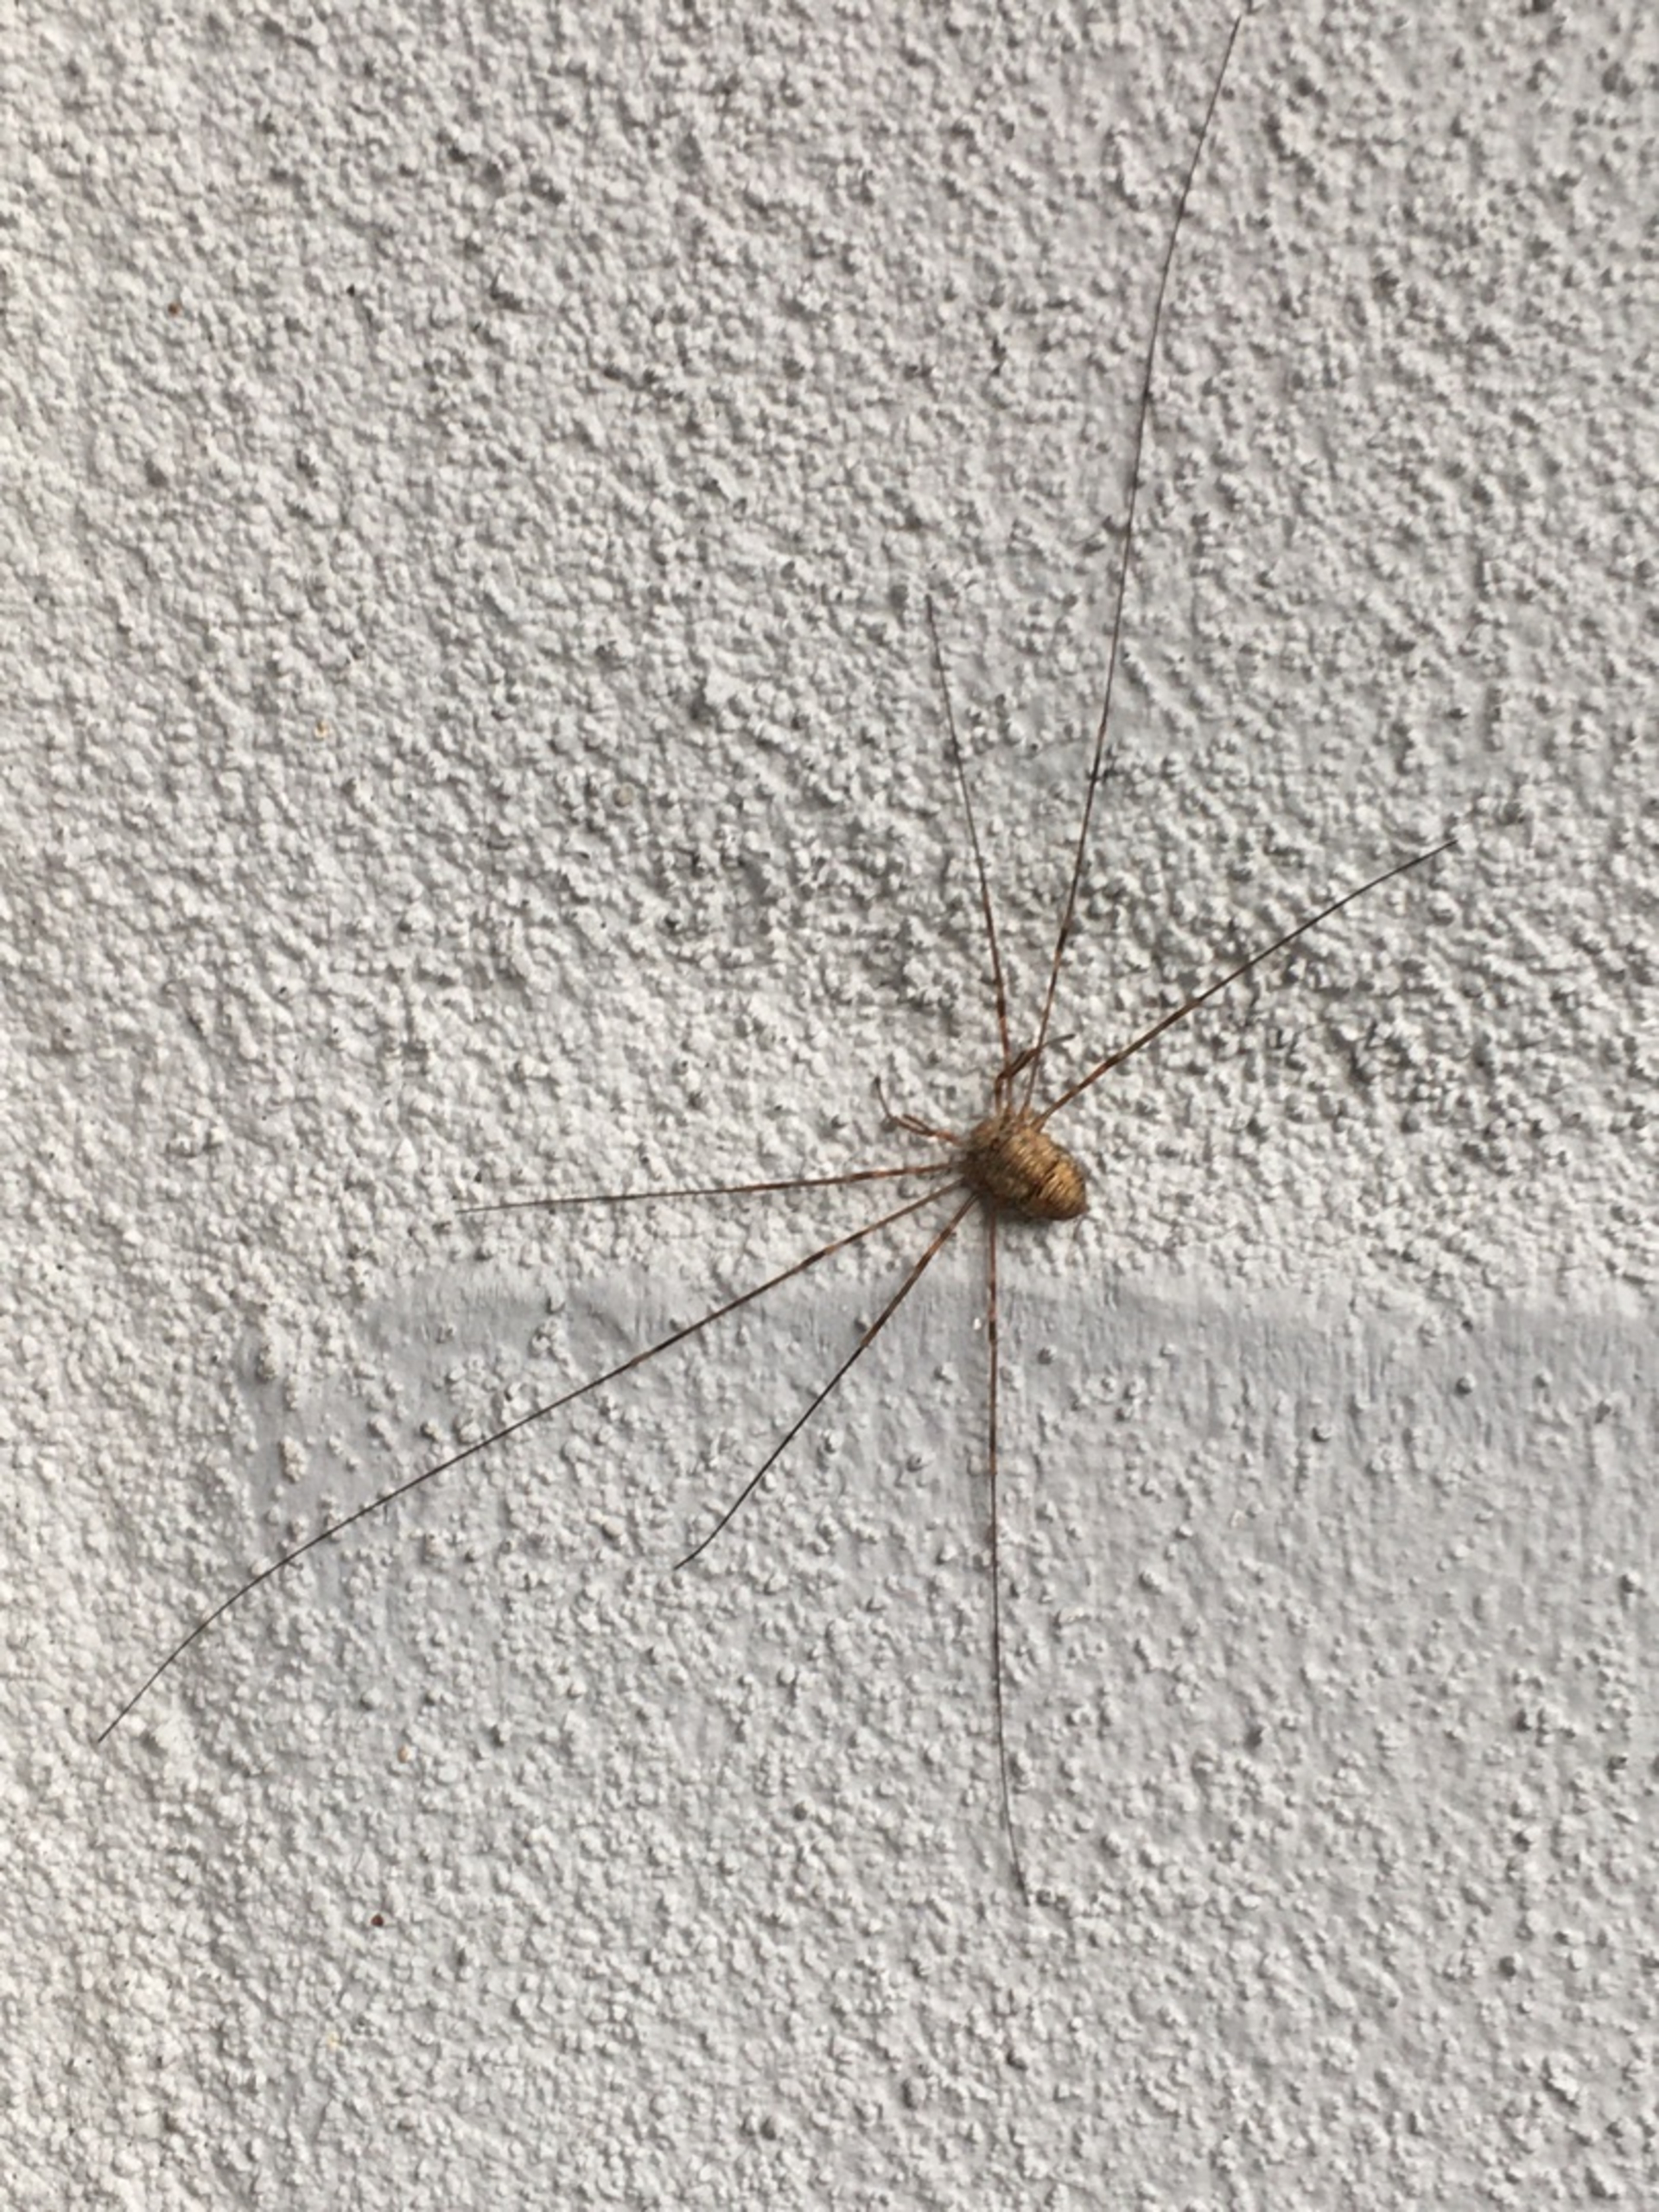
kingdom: Animalia
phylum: Arthropoda
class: Arachnida
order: Opiliones
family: Phalangiidae
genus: Dicranopalpus
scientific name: Dicranopalpus ramosus
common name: Gaffelmejer
